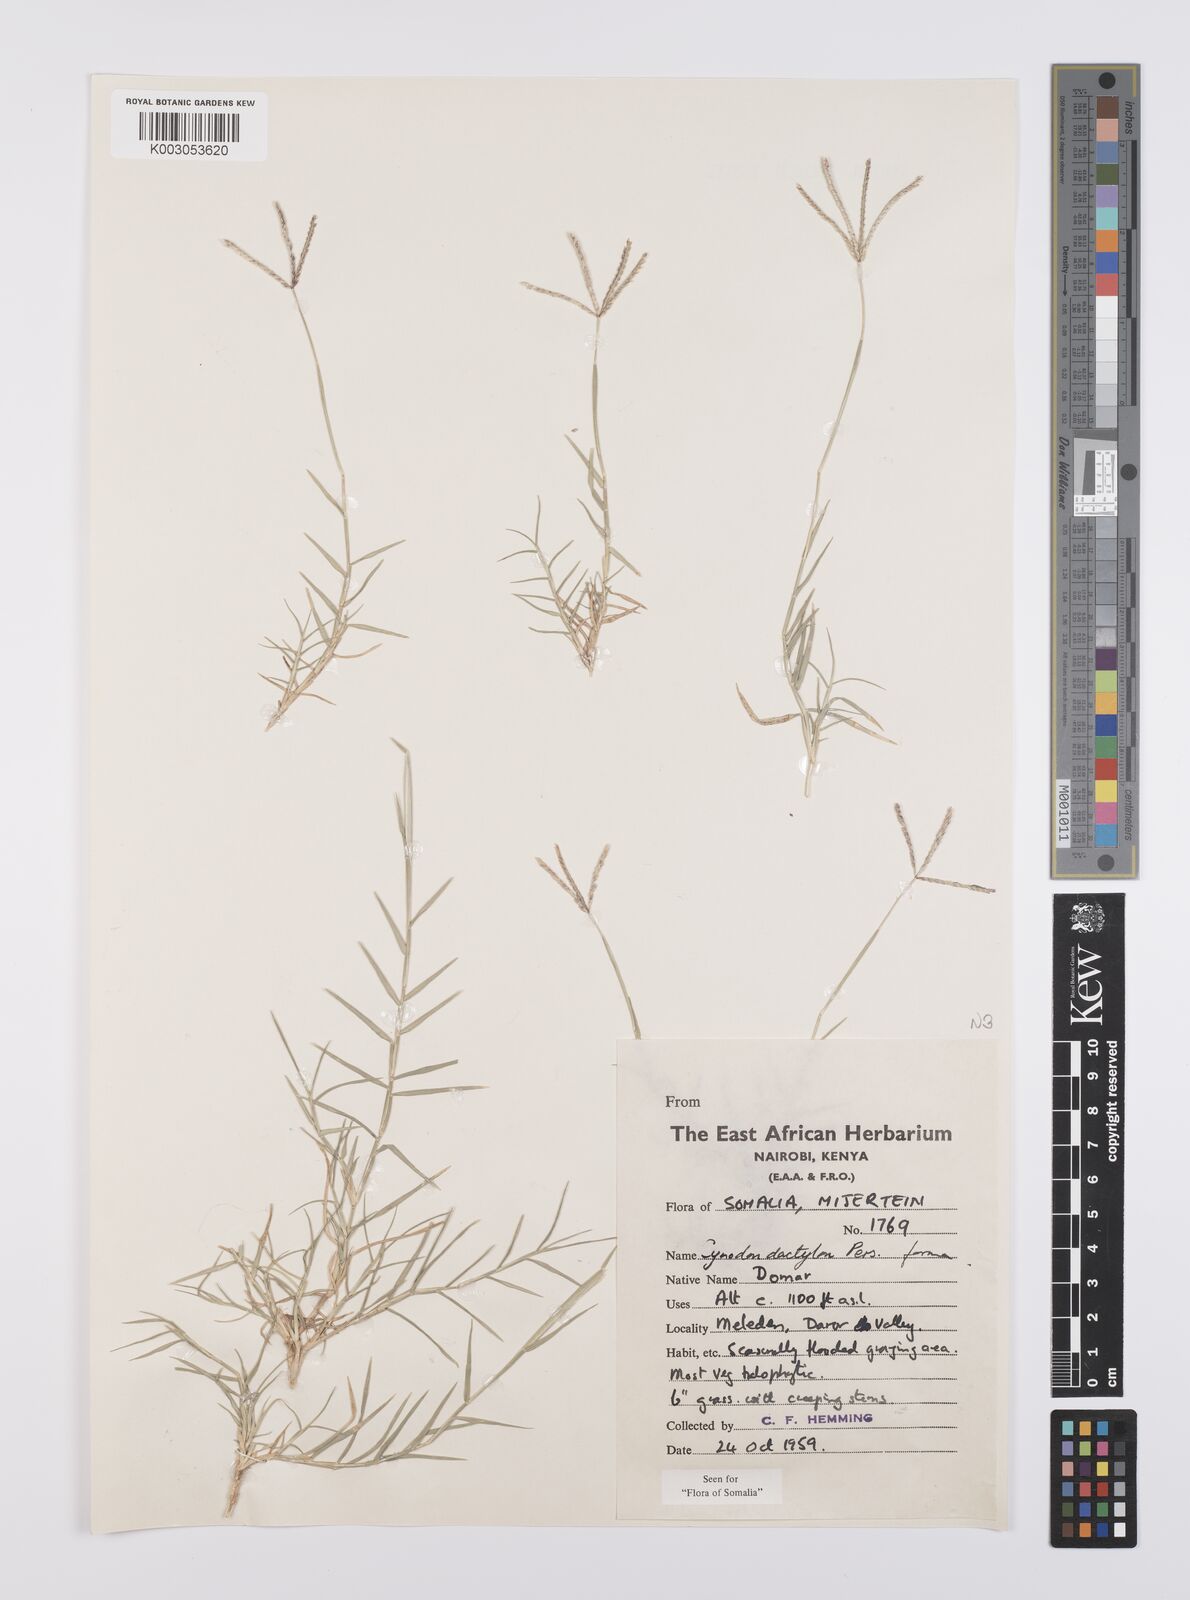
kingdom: Plantae
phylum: Tracheophyta
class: Liliopsida
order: Poales
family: Poaceae
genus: Cynodon
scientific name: Cynodon dactylon
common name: Bermuda grass
